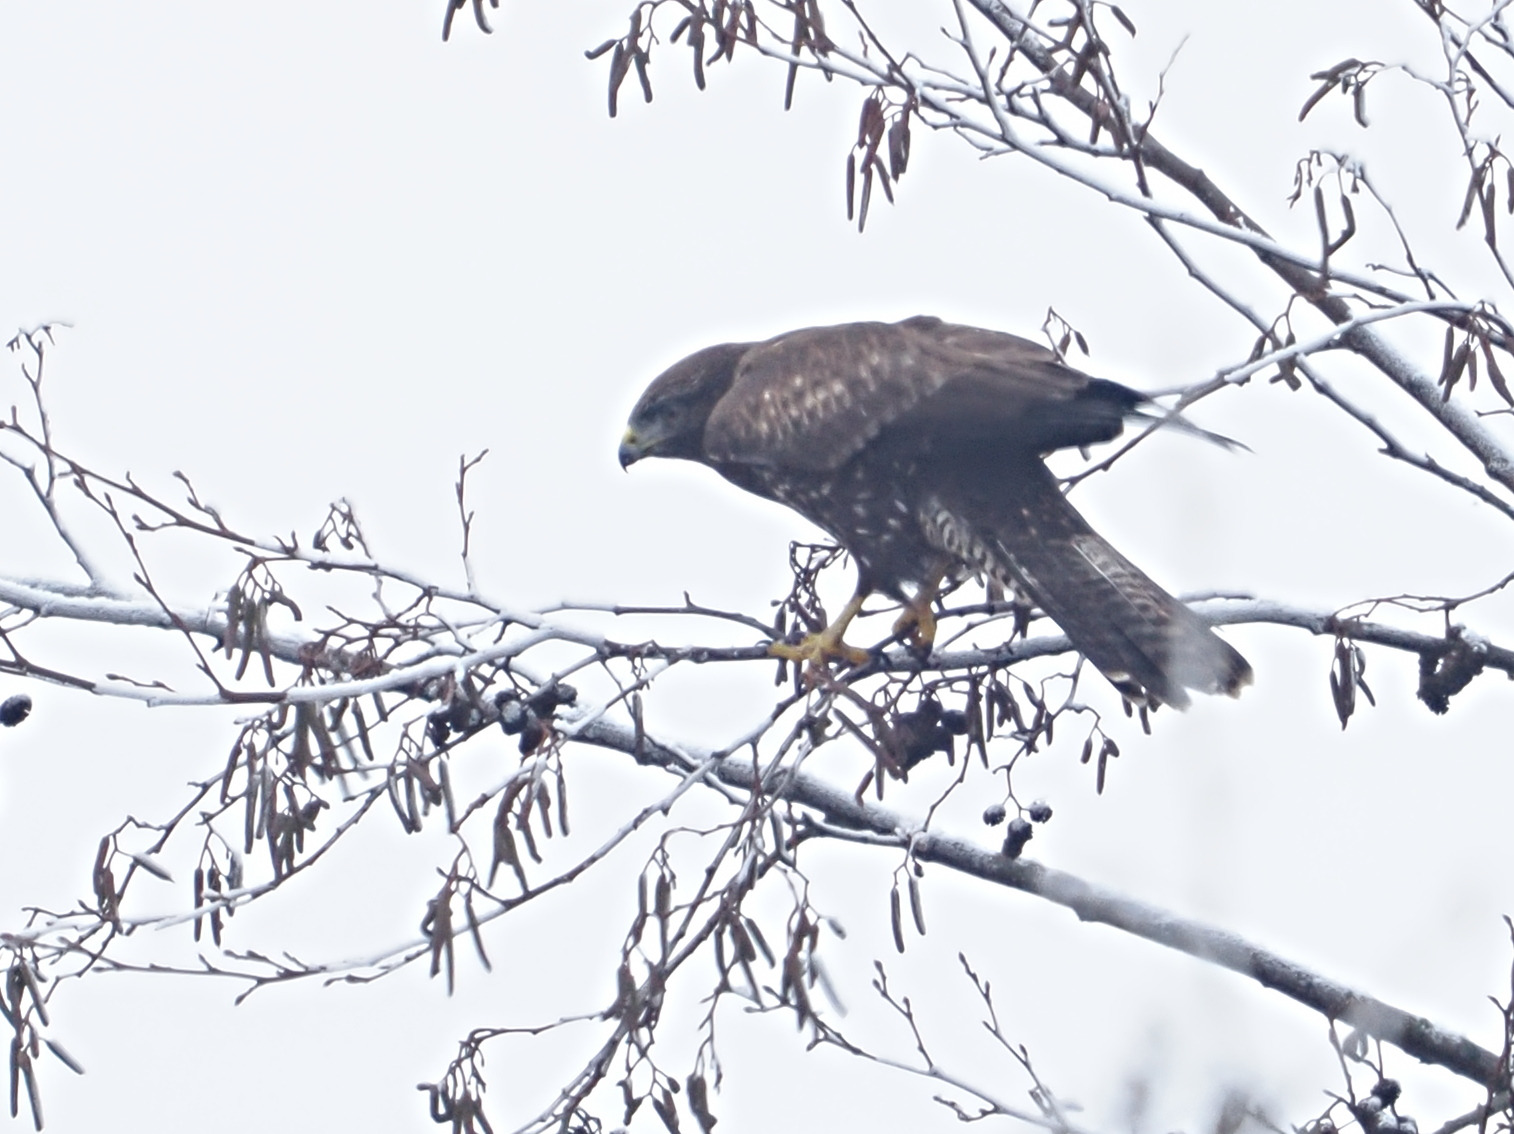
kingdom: Animalia
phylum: Chordata
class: Aves
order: Accipitriformes
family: Accipitridae
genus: Buteo
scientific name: Buteo buteo
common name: Musvåge
